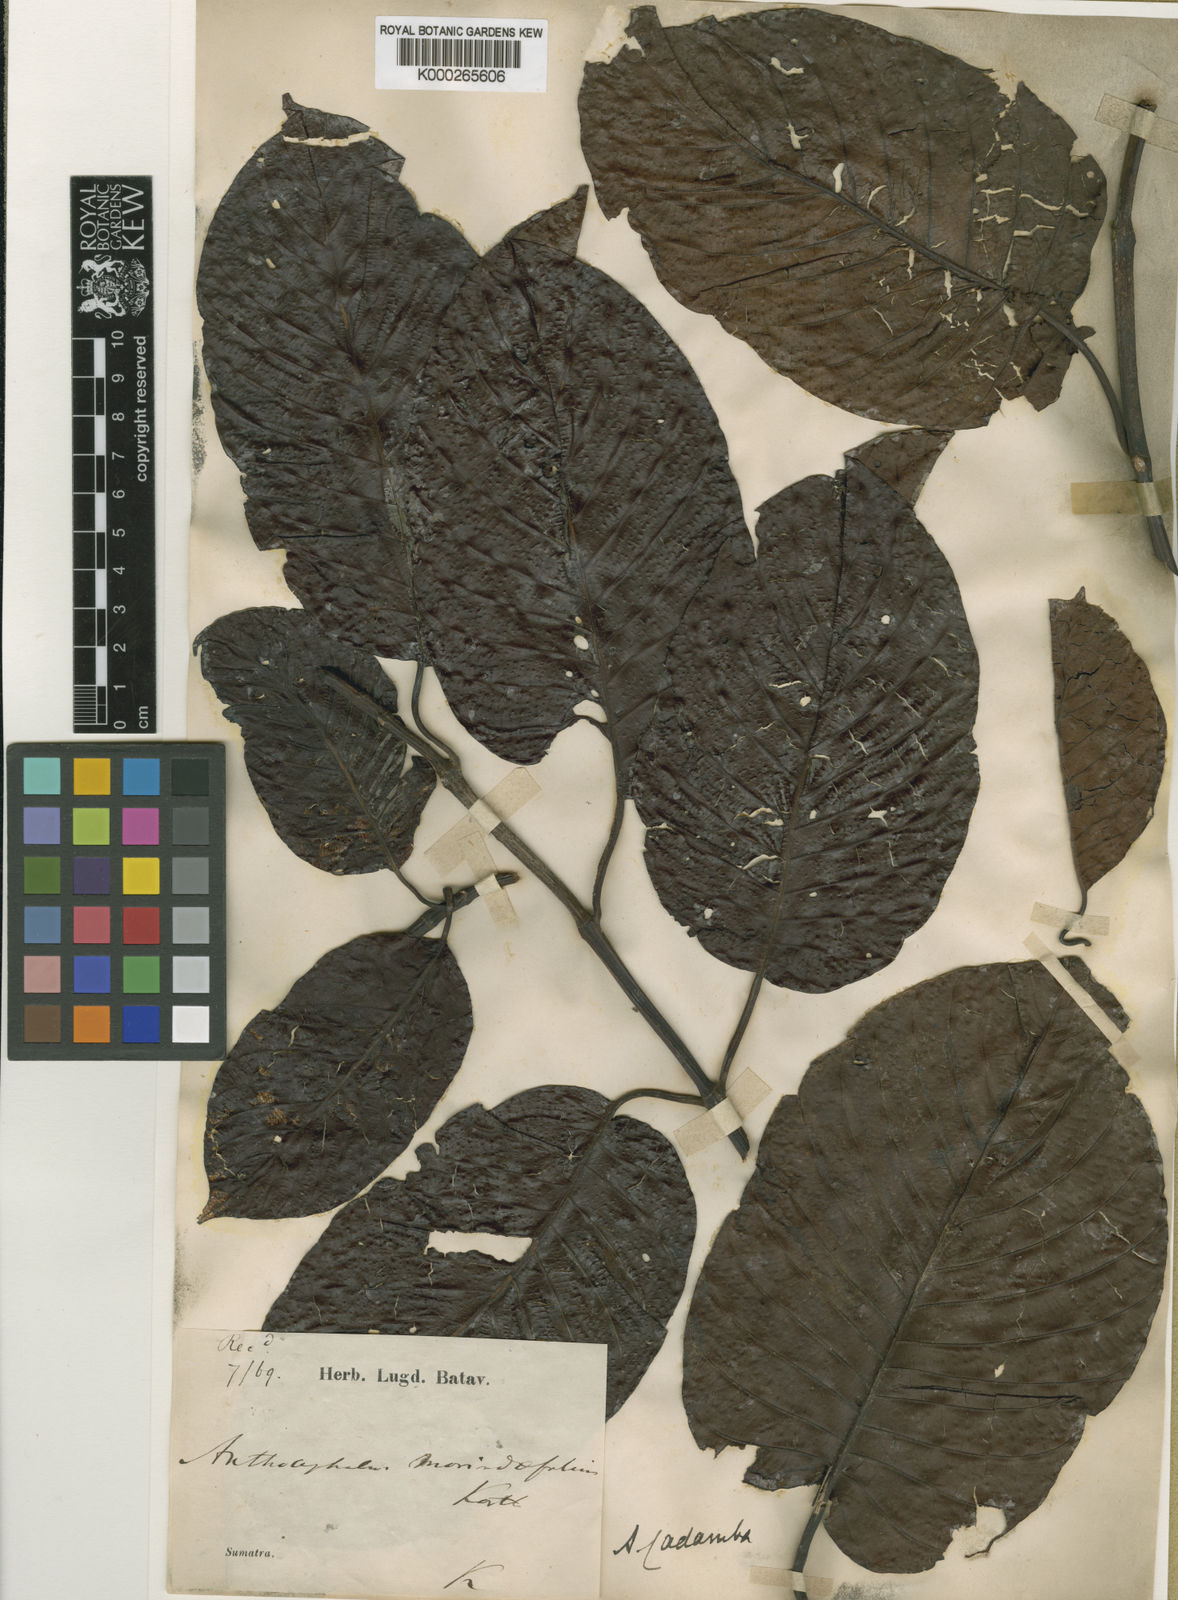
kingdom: Plantae
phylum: Tracheophyta
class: Magnoliopsida
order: Gentianales
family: Rubiaceae
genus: Neolamarckia
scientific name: Neolamarckia cadamba
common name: Leichhardt-pine
